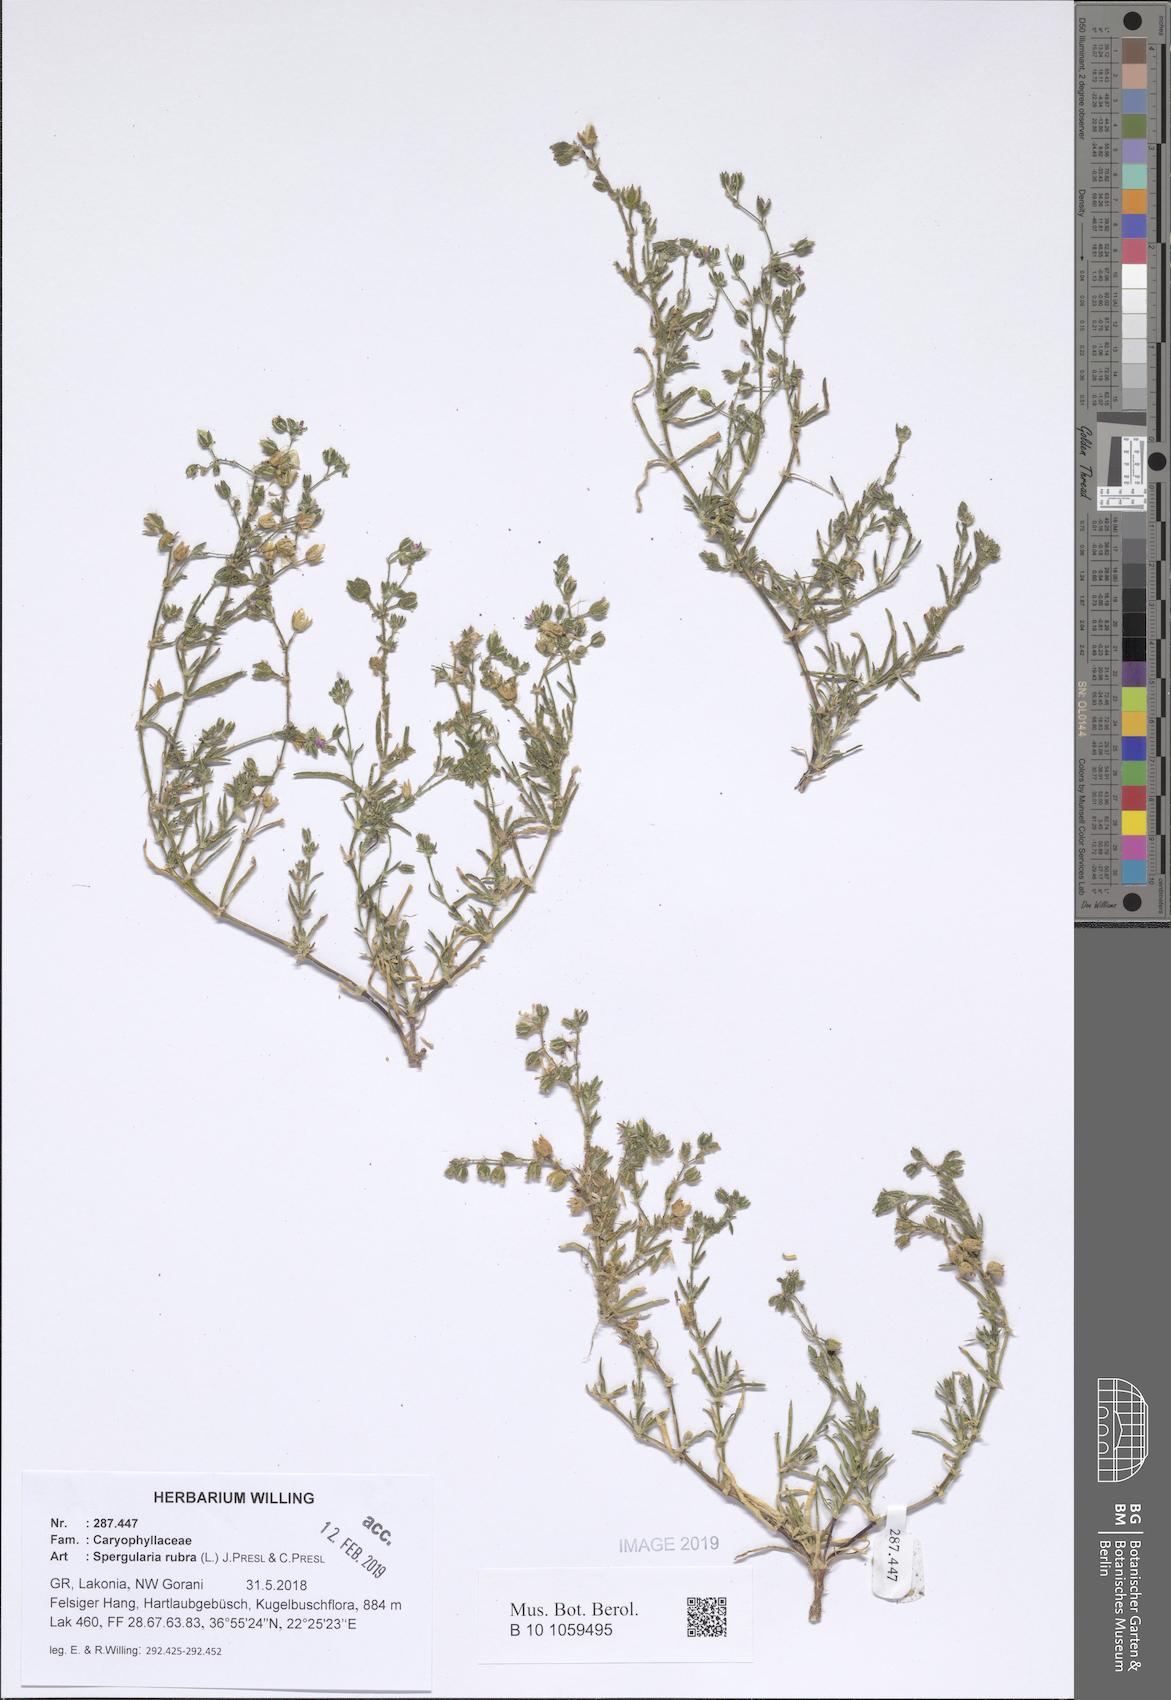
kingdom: Plantae
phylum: Tracheophyta
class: Magnoliopsida
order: Caryophyllales
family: Caryophyllaceae
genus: Spergularia
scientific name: Spergularia rubra
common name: Red sand-spurrey
